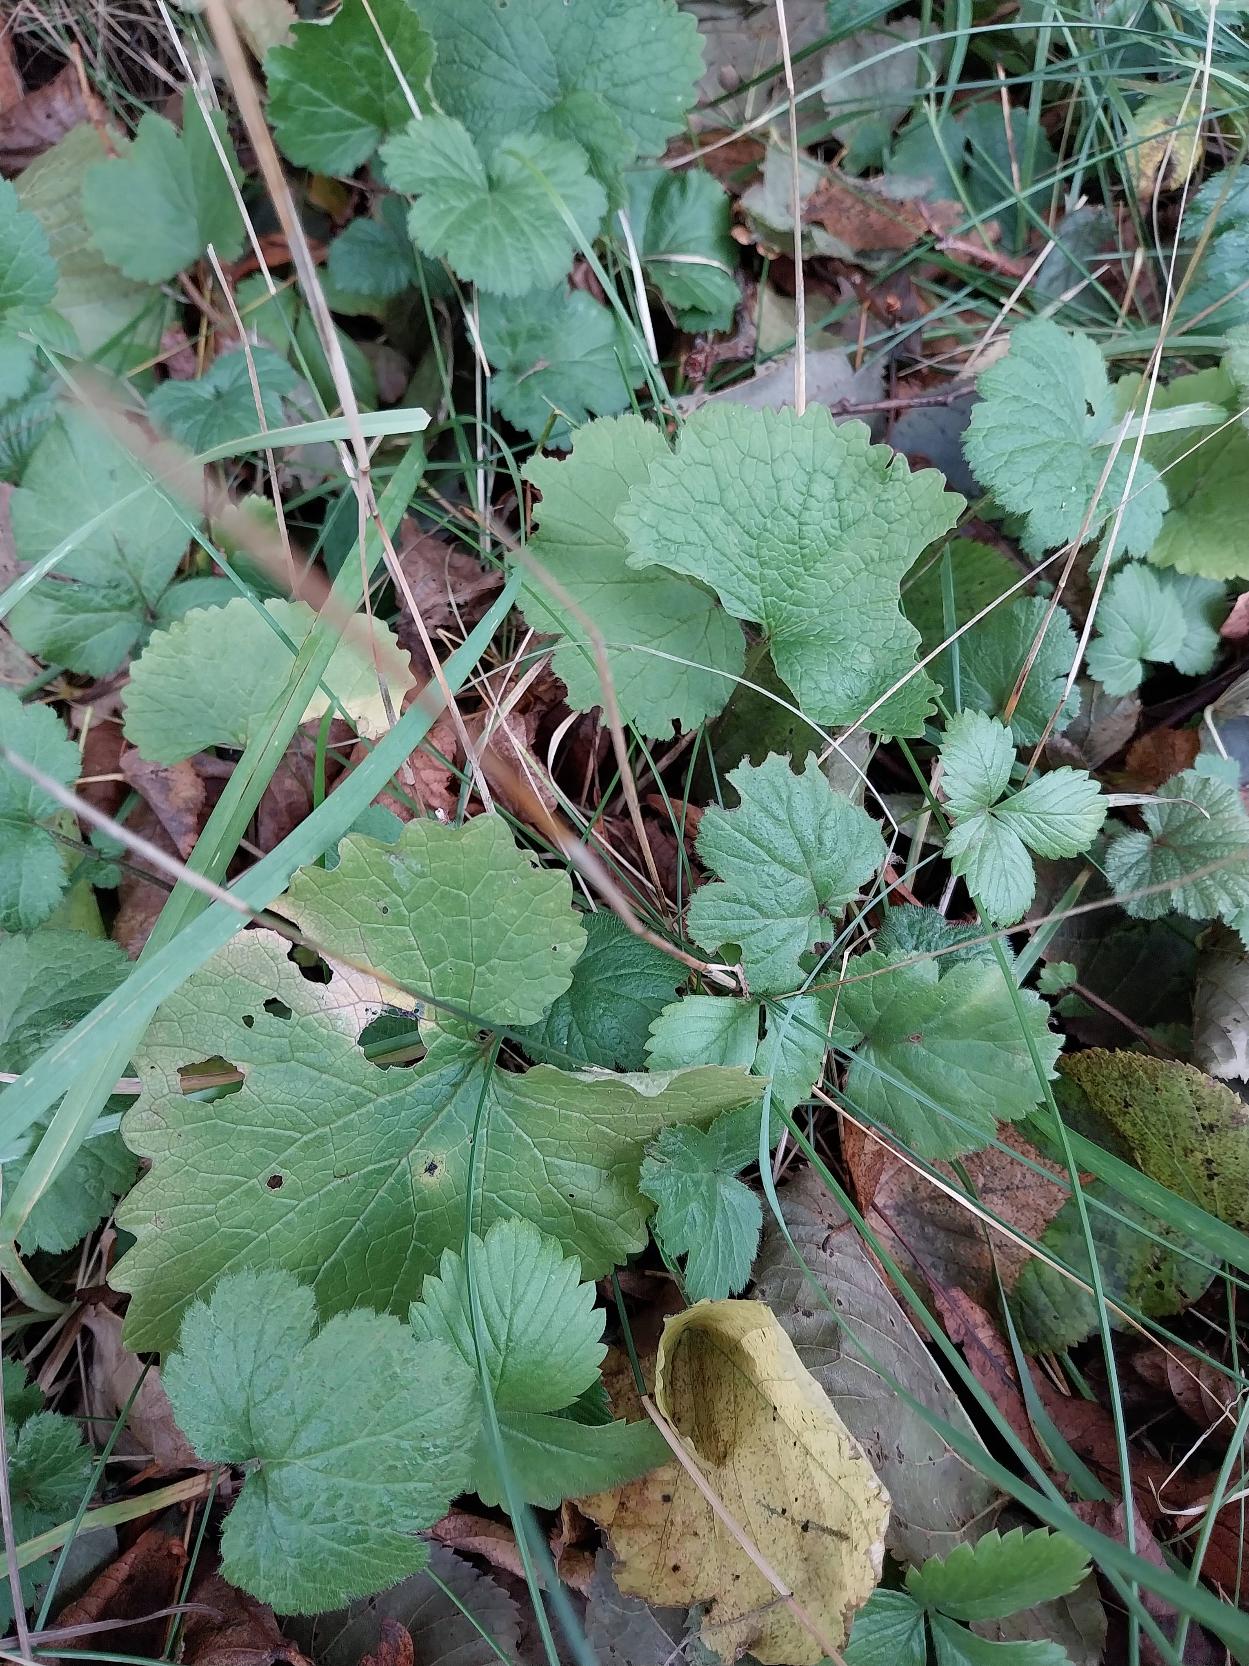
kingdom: Plantae
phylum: Tracheophyta
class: Magnoliopsida
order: Brassicales
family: Brassicaceae
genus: Alliaria
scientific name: Alliaria petiolata
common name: Løgkarse
